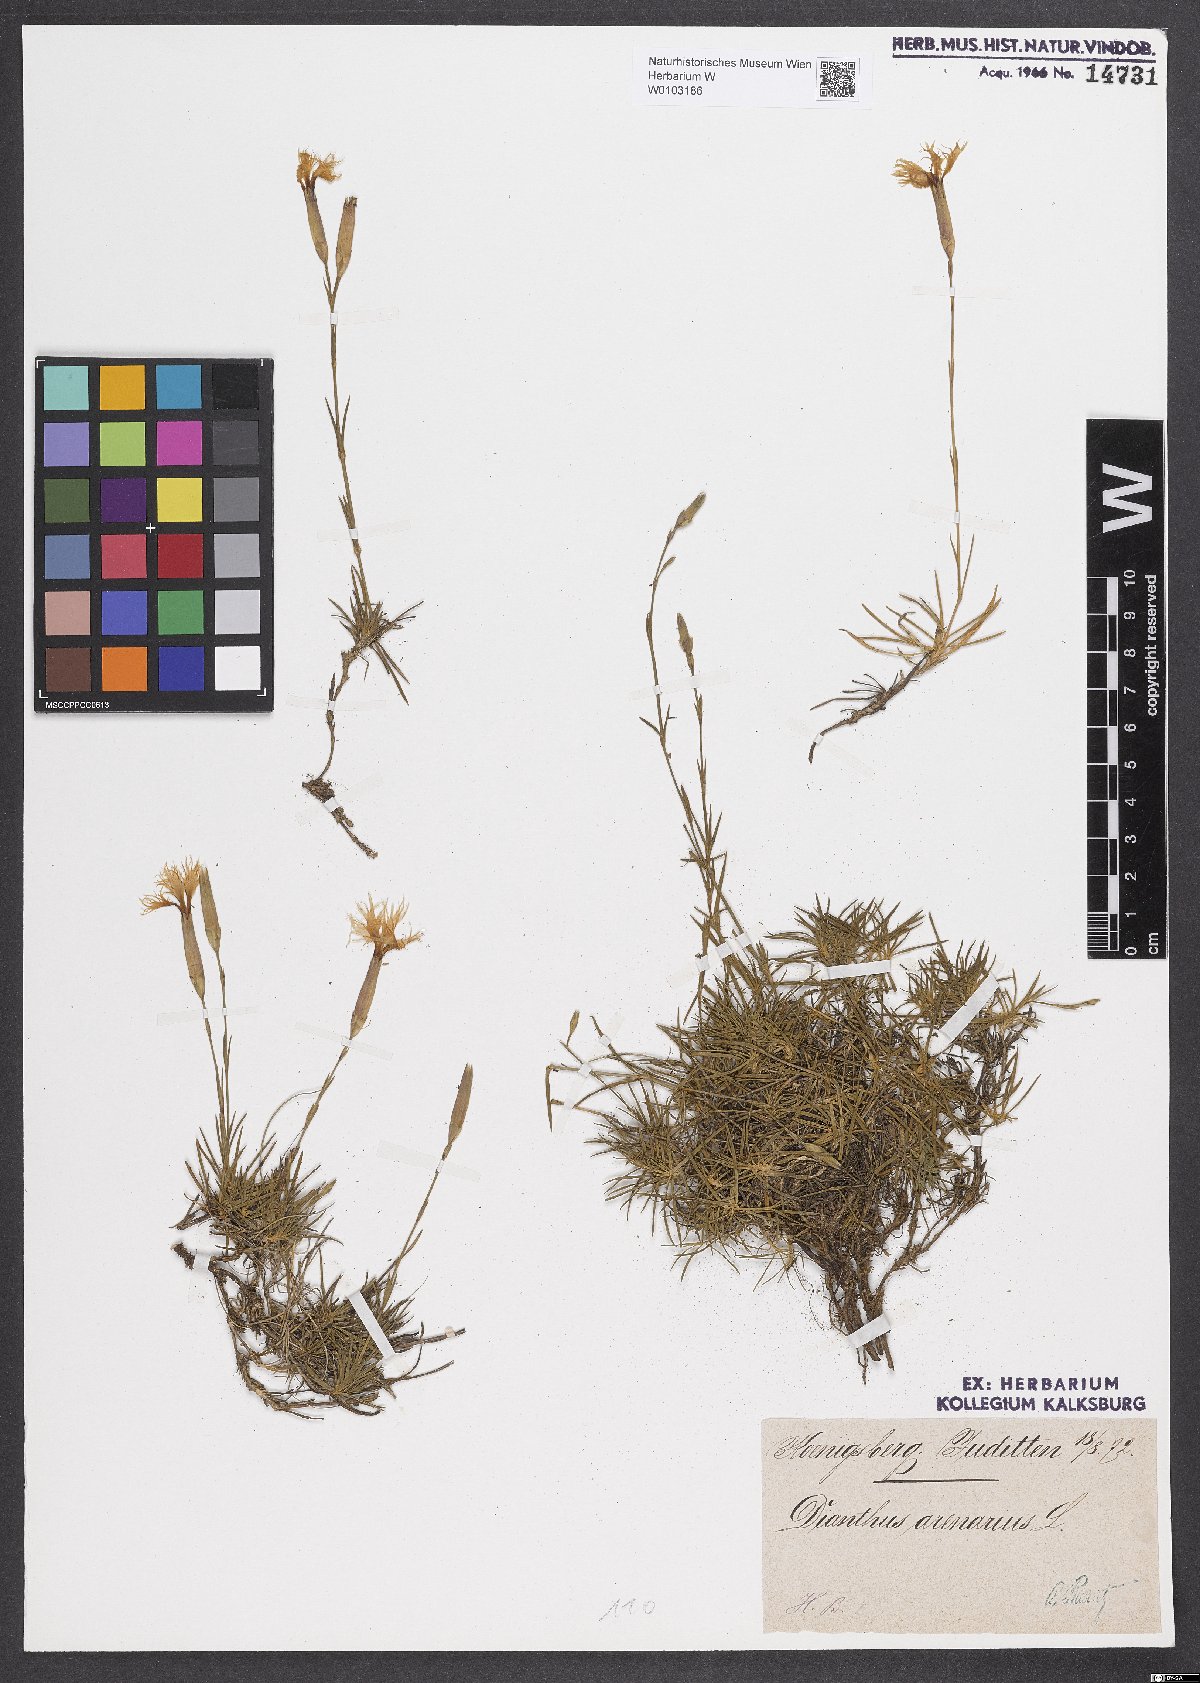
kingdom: Plantae
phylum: Tracheophyta
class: Magnoliopsida
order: Caryophyllales
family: Caryophyllaceae
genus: Dianthus
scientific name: Dianthus arenarius
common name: Stone pink
